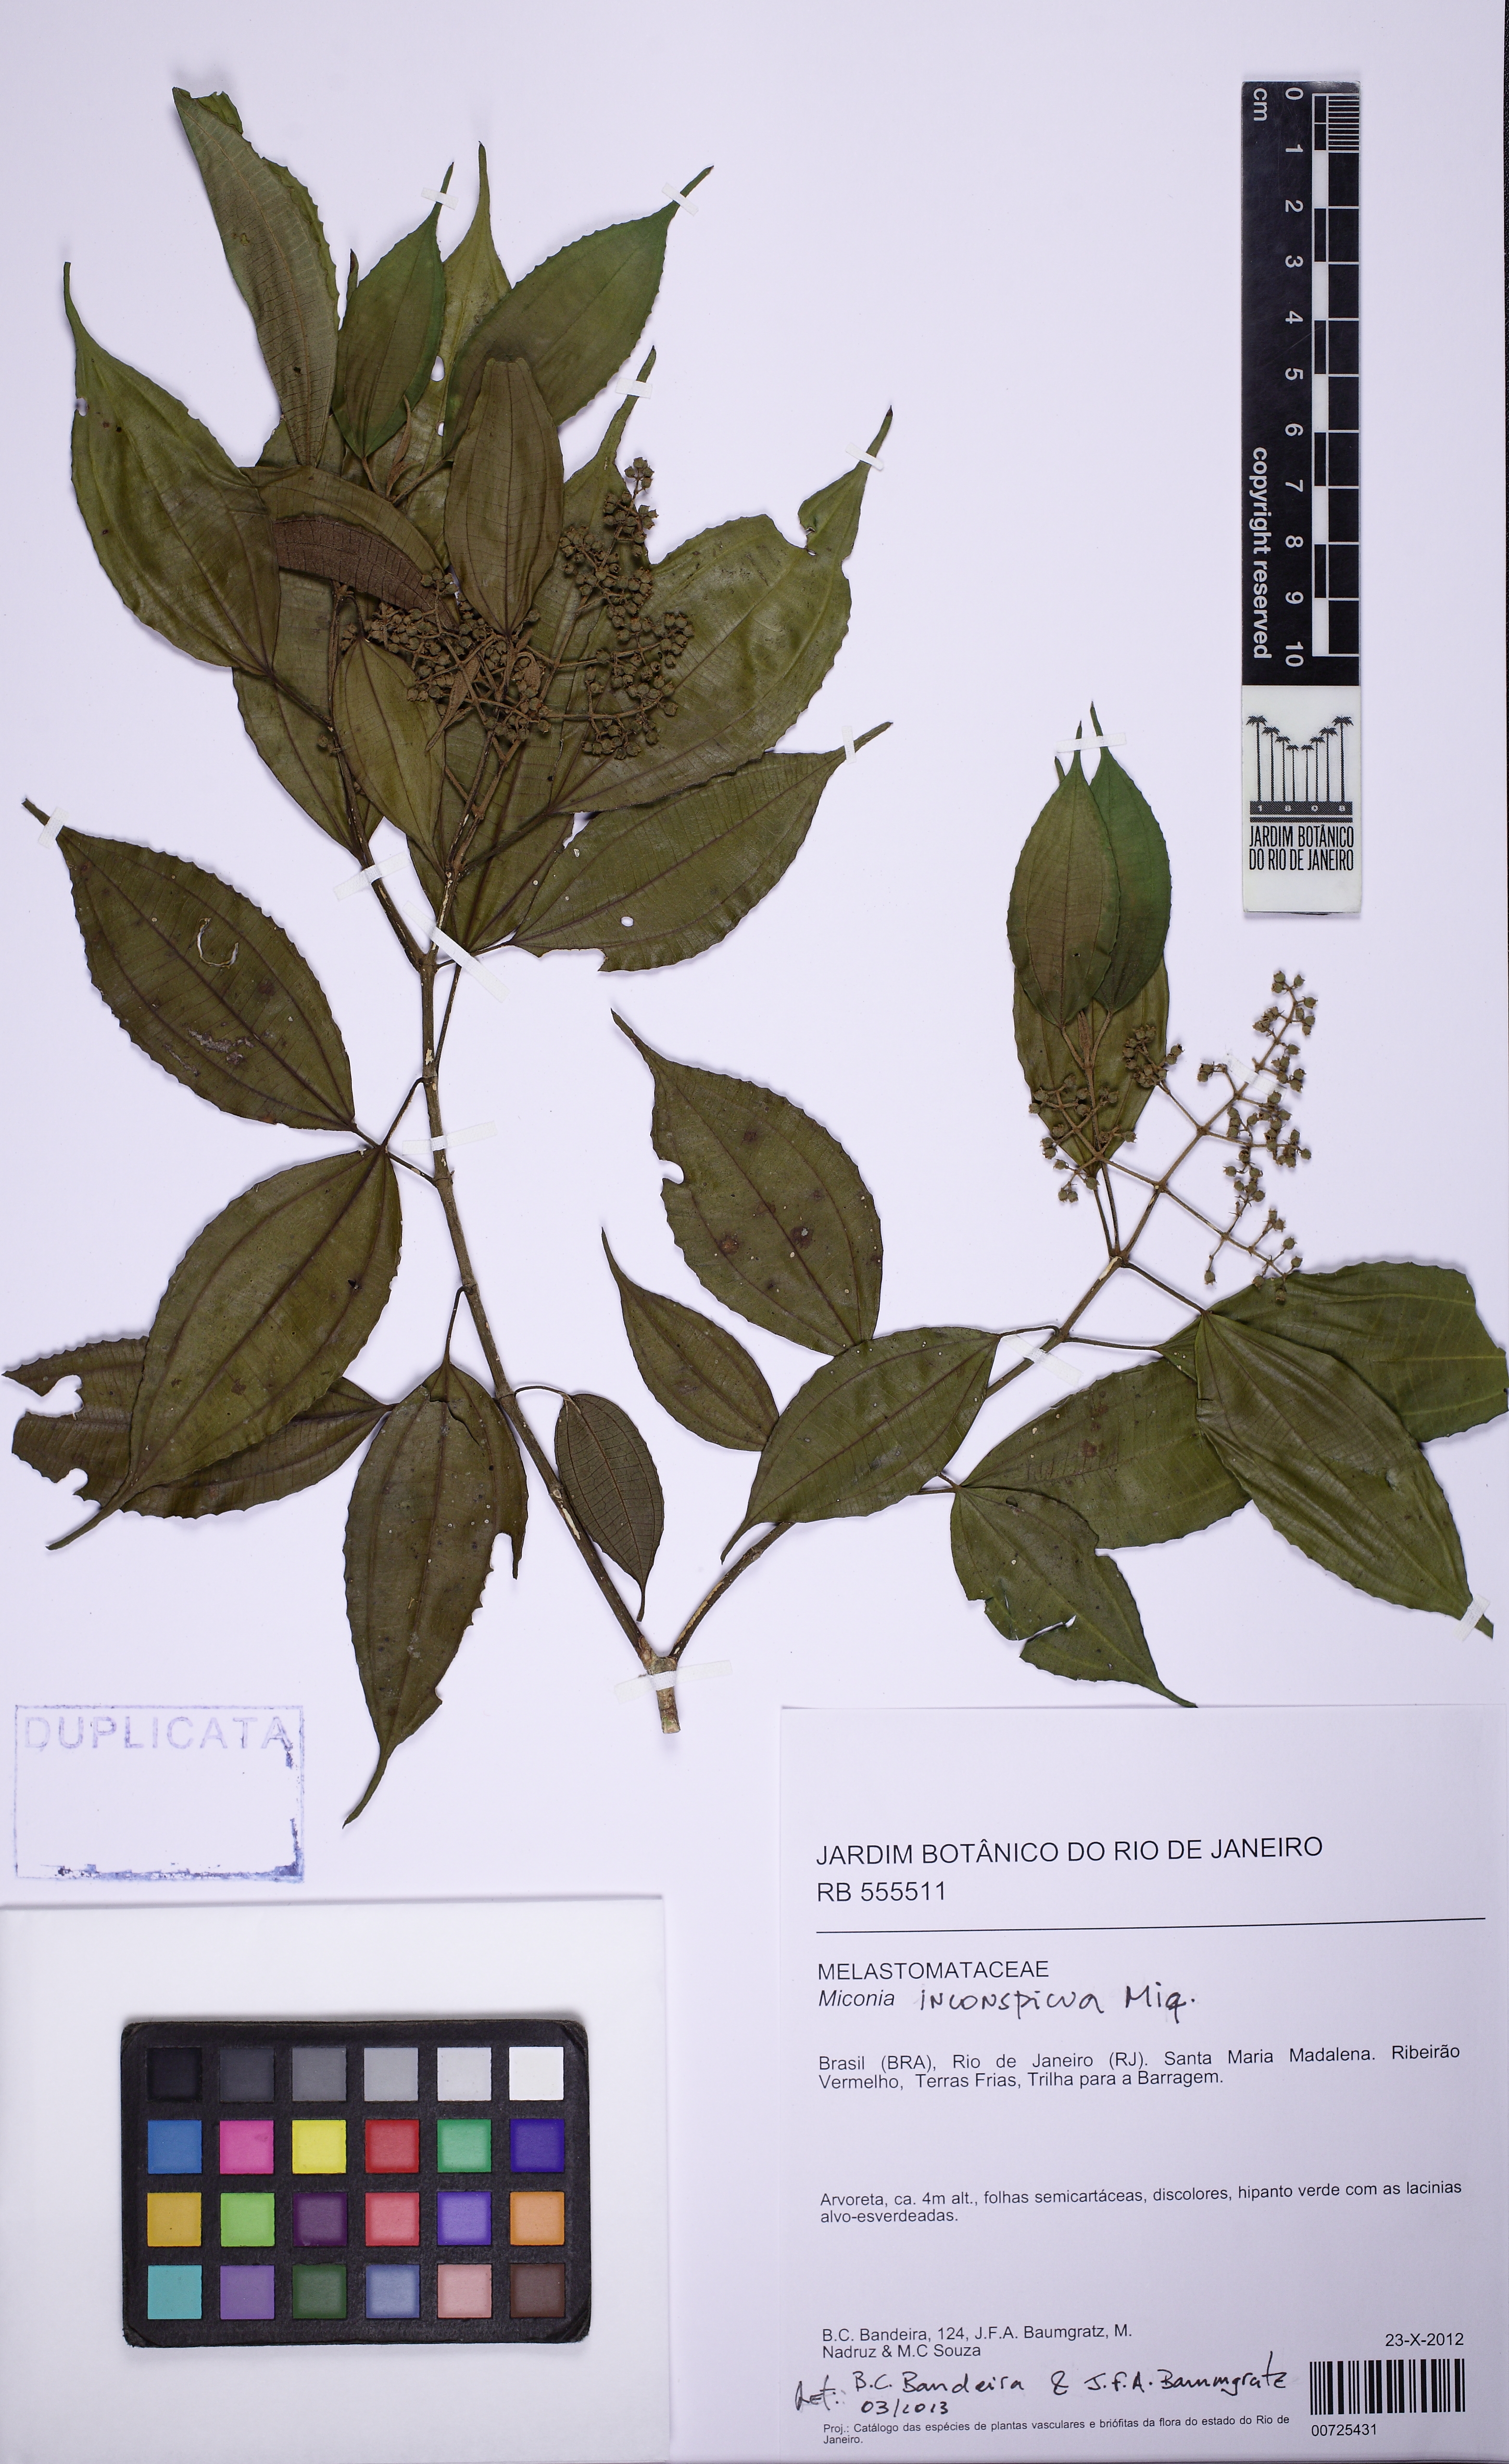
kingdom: Plantae
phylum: Tracheophyta
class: Magnoliopsida
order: Myrtales
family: Melastomataceae
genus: Miconia
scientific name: Miconia inconspicua
